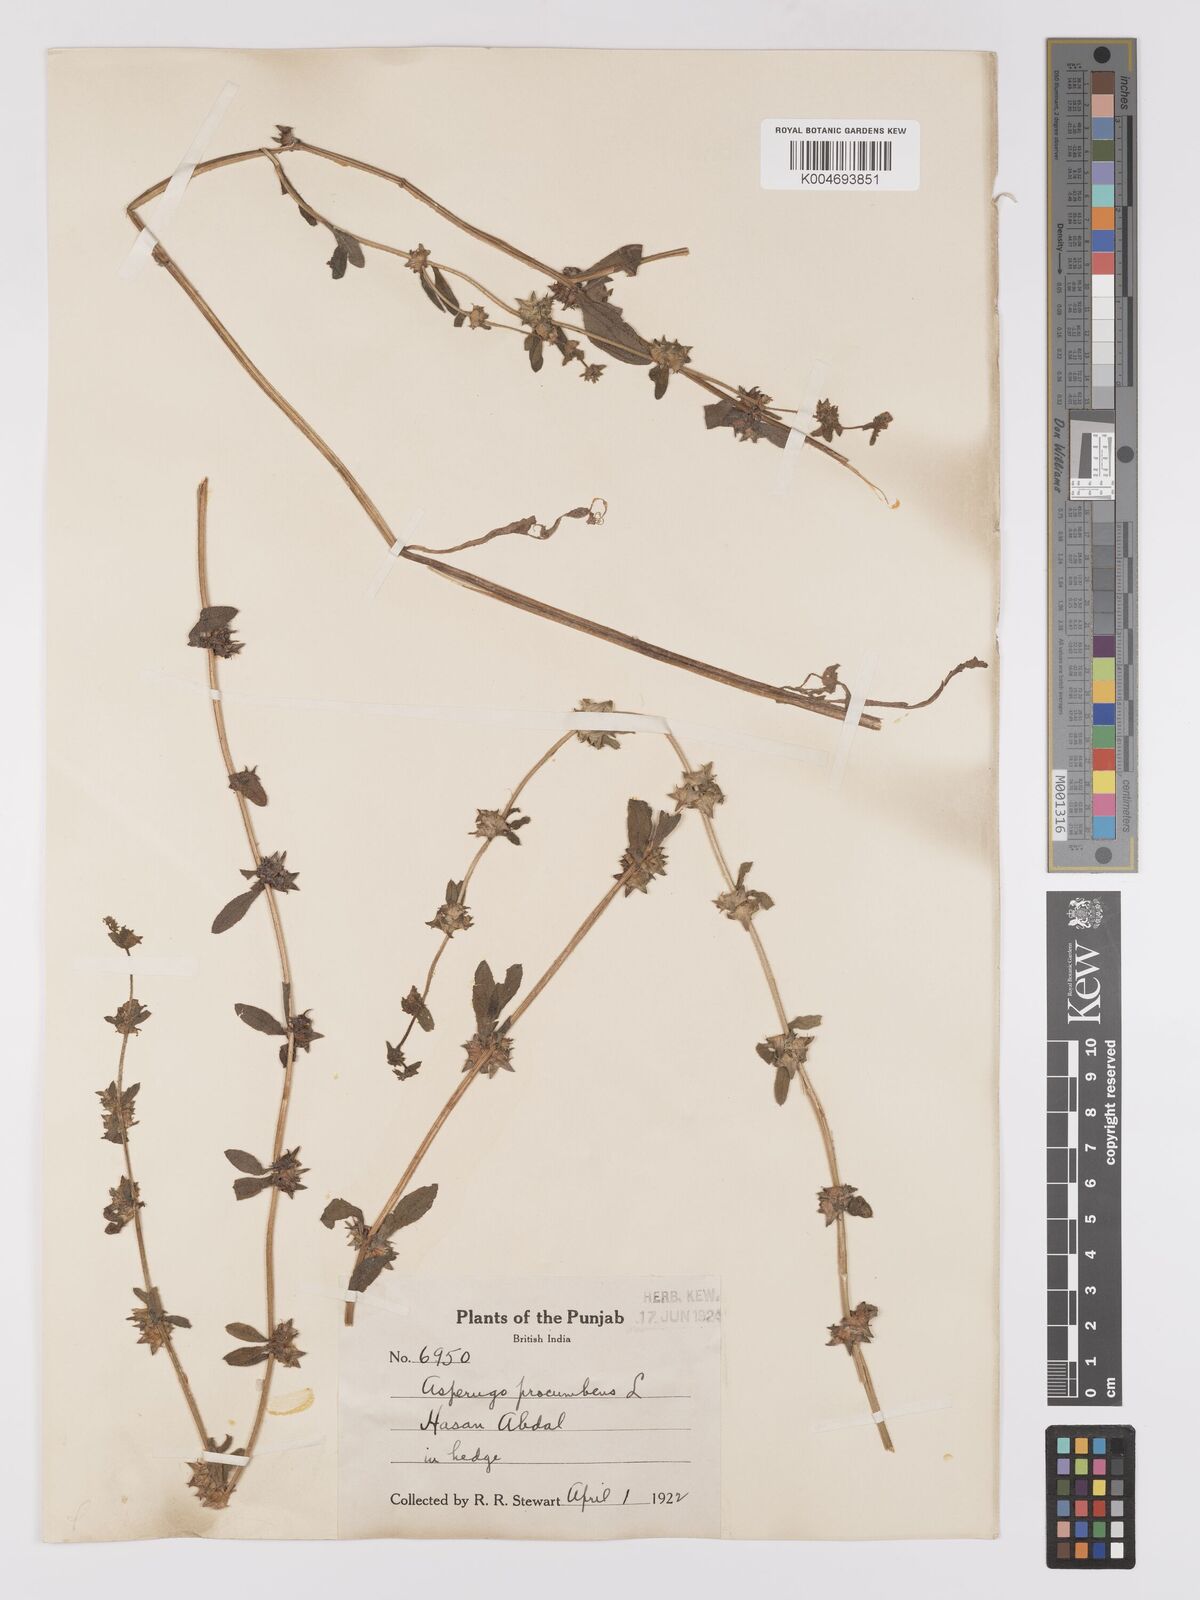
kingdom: Plantae
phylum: Tracheophyta
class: Magnoliopsida
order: Boraginales
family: Boraginaceae
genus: Asperugo
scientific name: Asperugo procumbens
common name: Madwort
